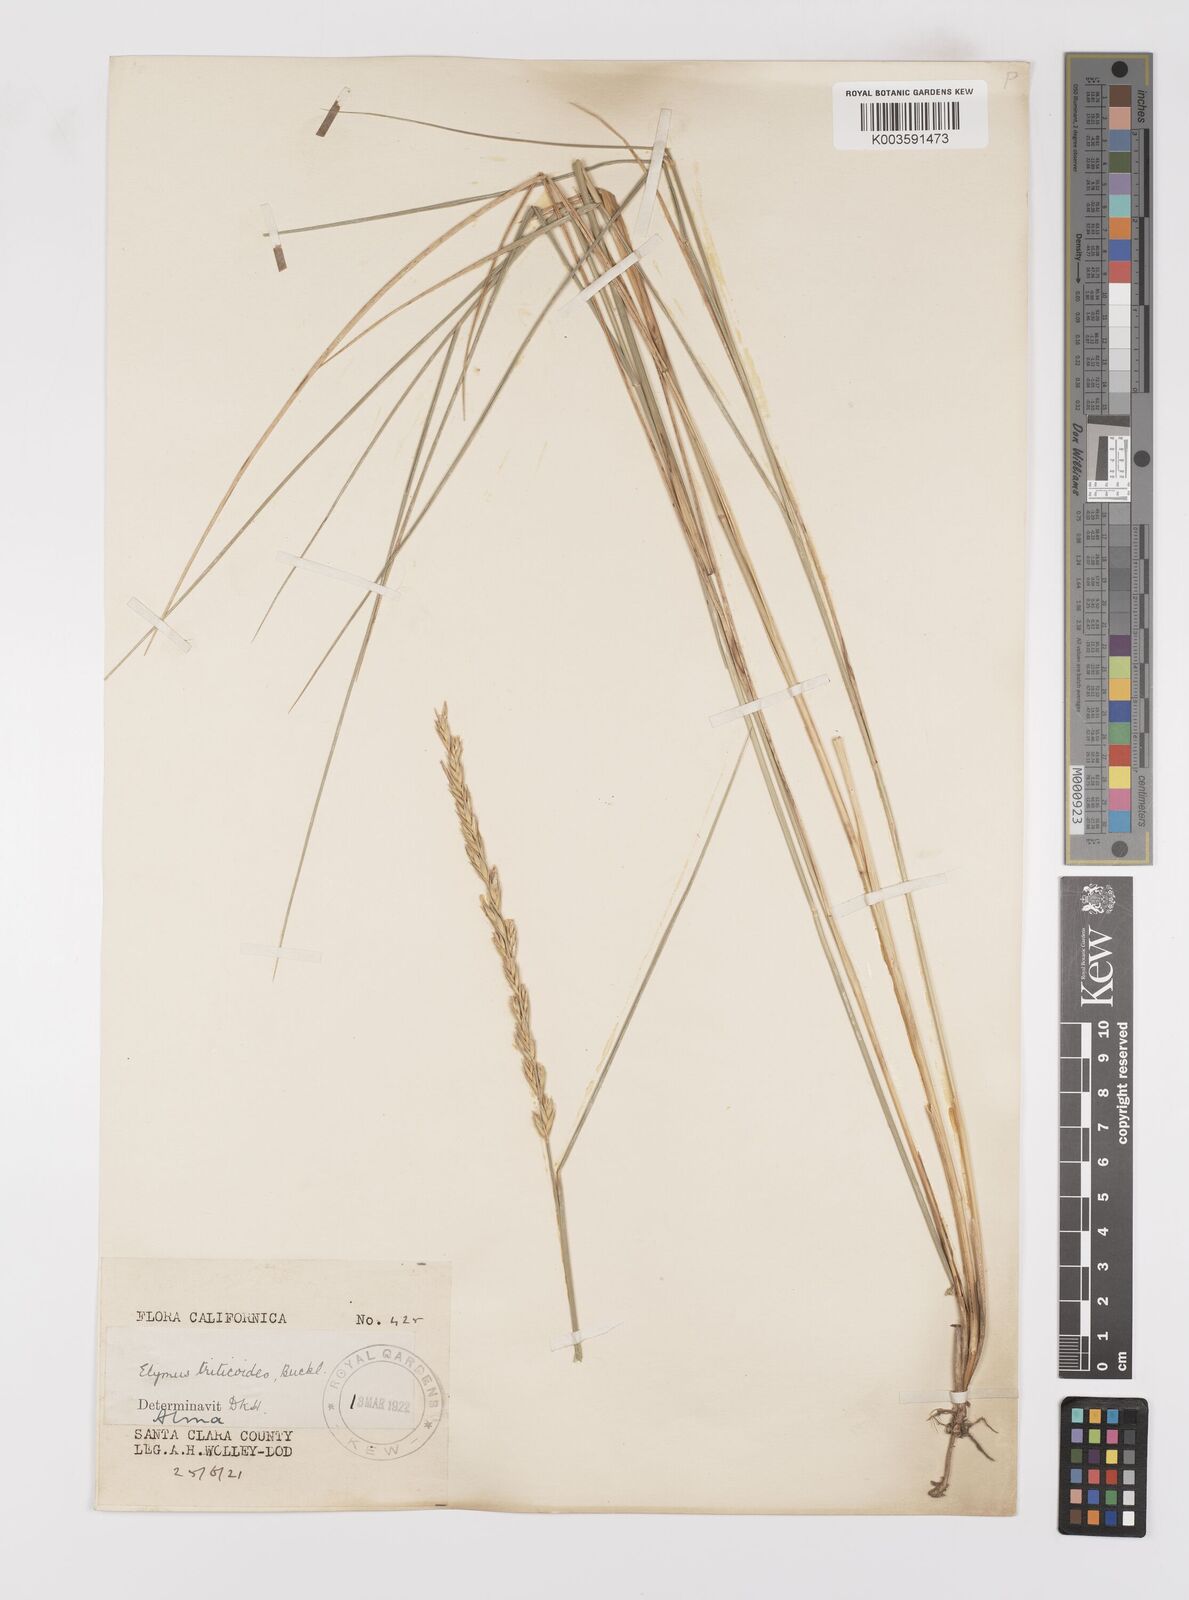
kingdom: Plantae
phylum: Tracheophyta
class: Liliopsida
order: Poales
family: Poaceae
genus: Leymus
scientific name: Leymus triticoides
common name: Beardless wild rye
